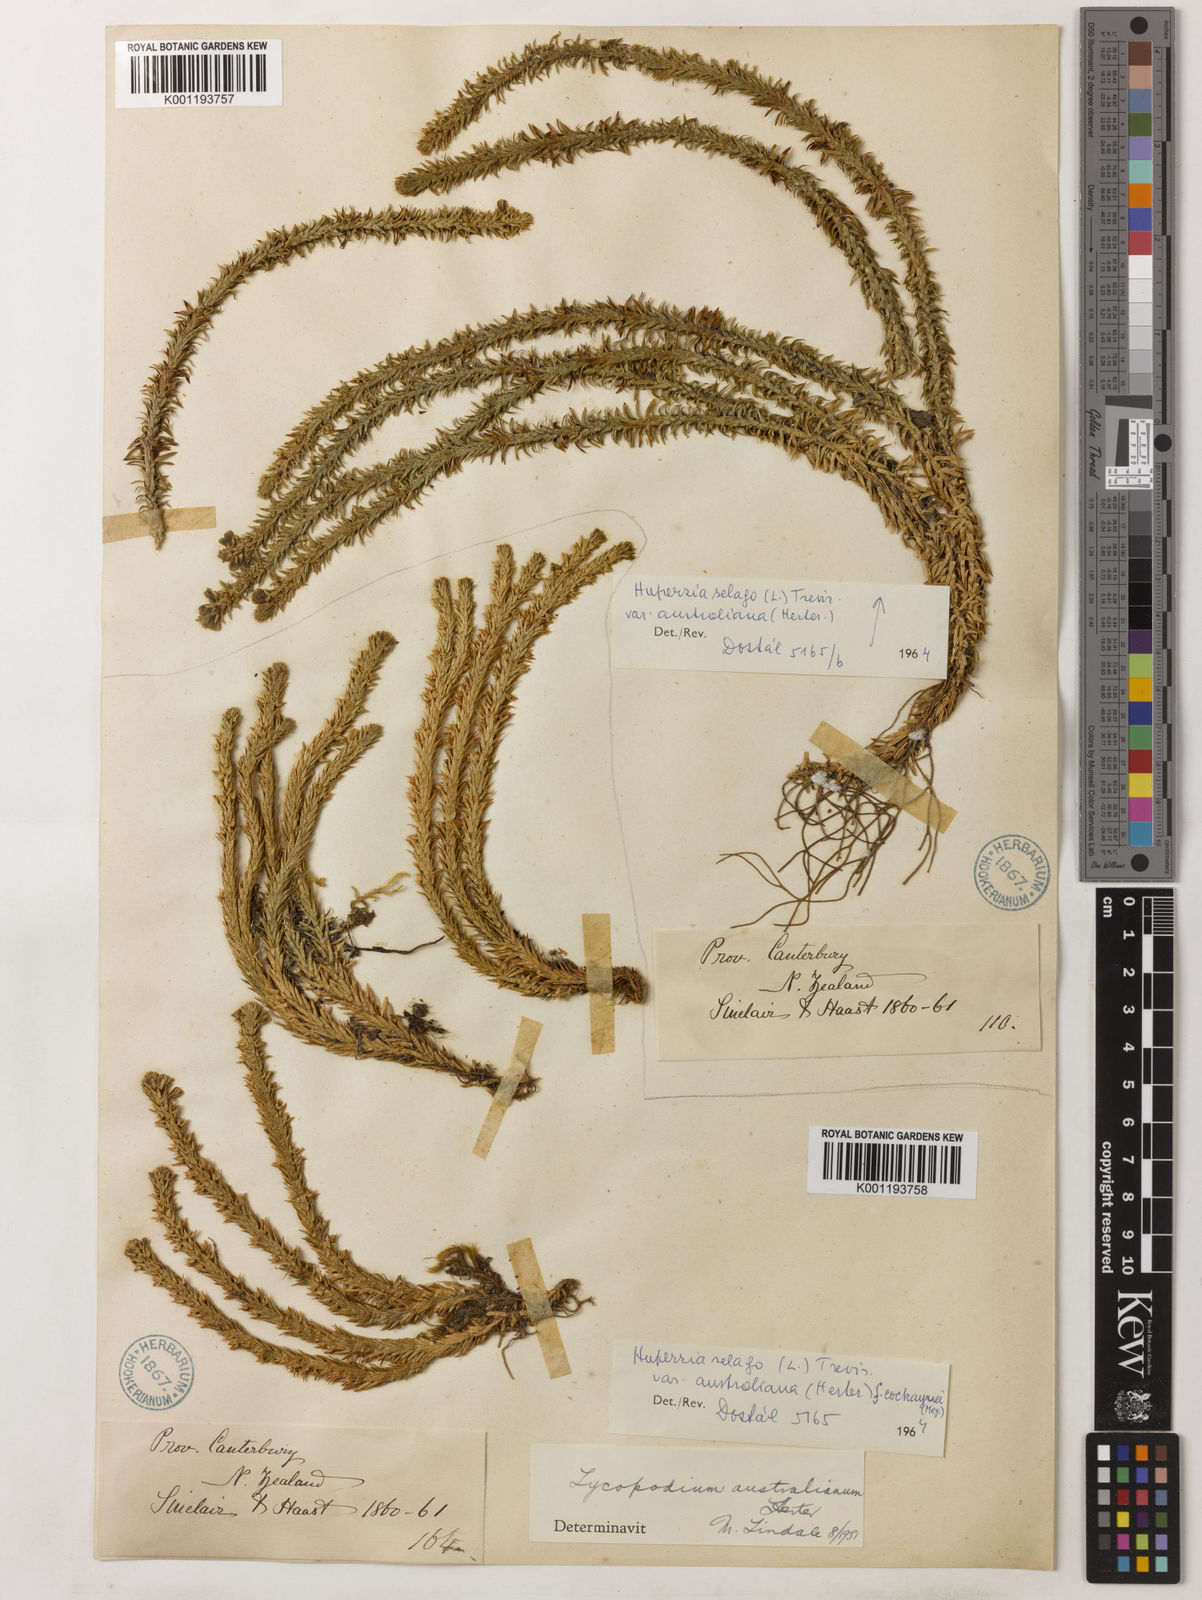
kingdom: Plantae
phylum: Tracheophyta
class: Lycopodiopsida
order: Lycopodiales
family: Lycopodiaceae
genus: Huperzia
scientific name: Huperzia australiana
